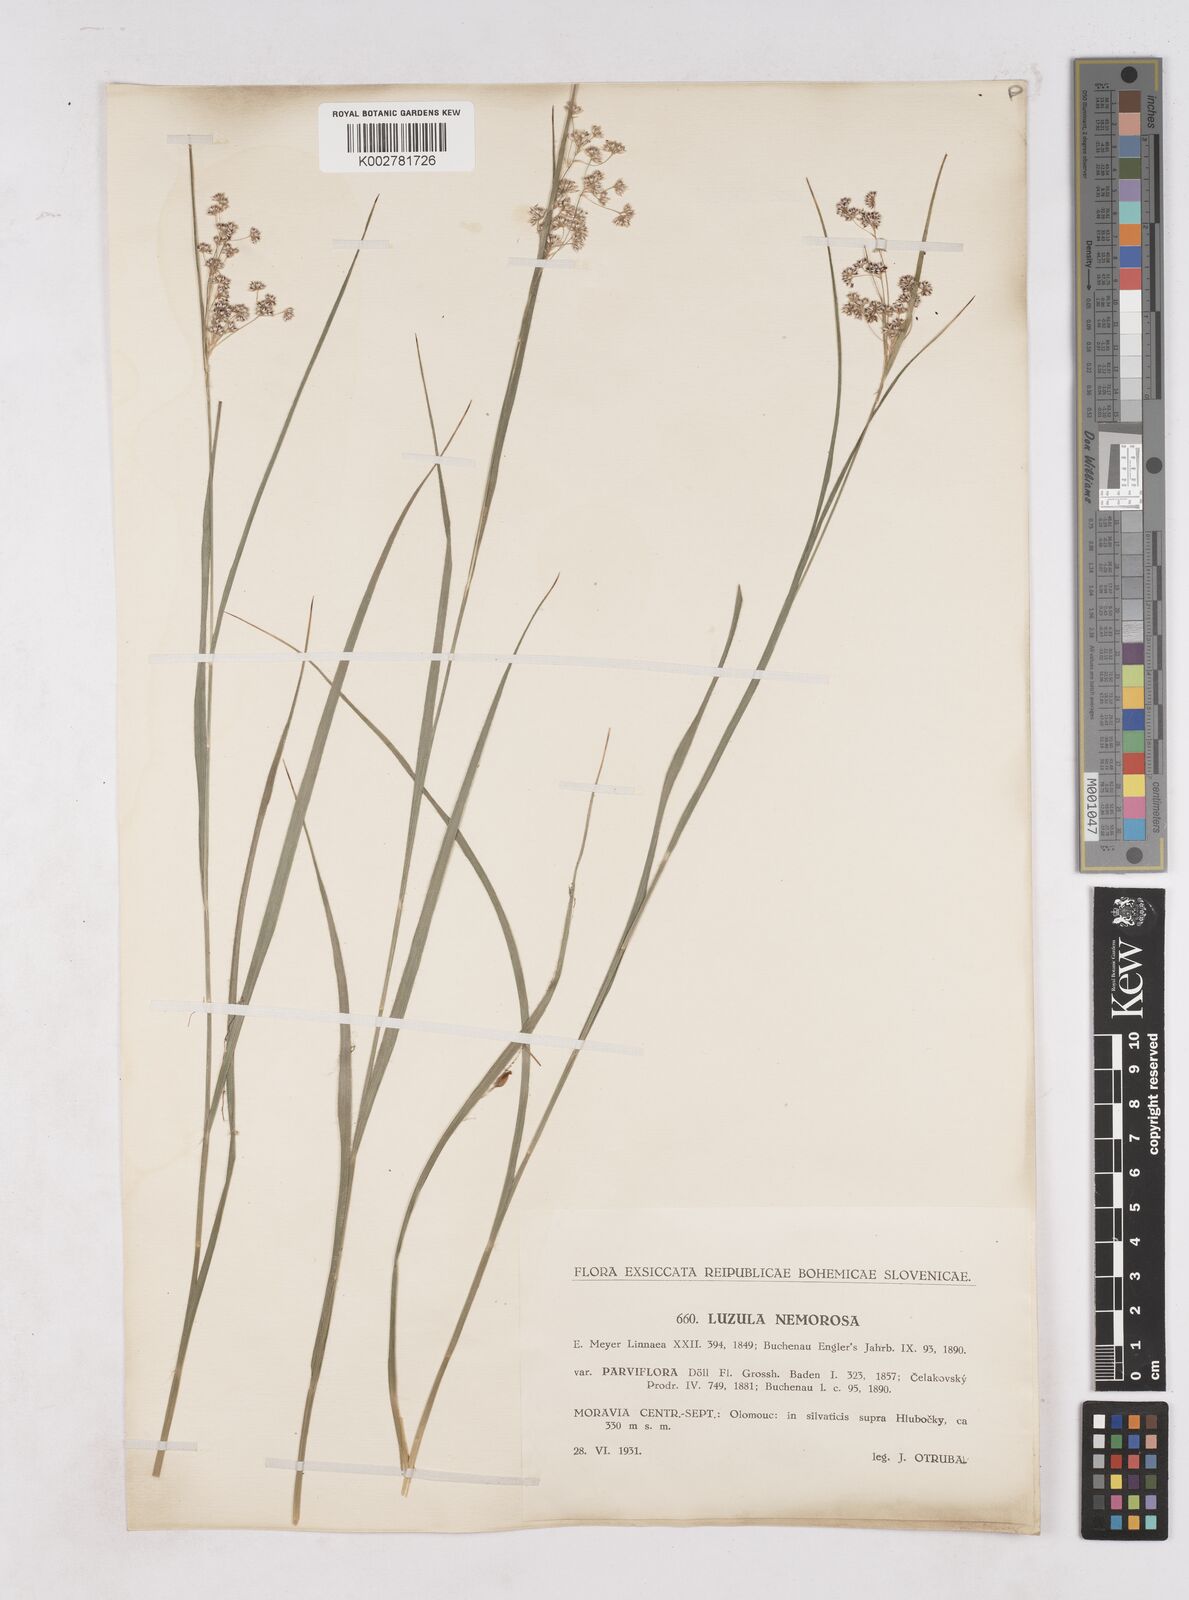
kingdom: Plantae
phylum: Tracheophyta
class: Liliopsida
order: Poales
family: Juncaceae
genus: Luzula
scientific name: Luzula luzuloides
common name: White wood-rush
